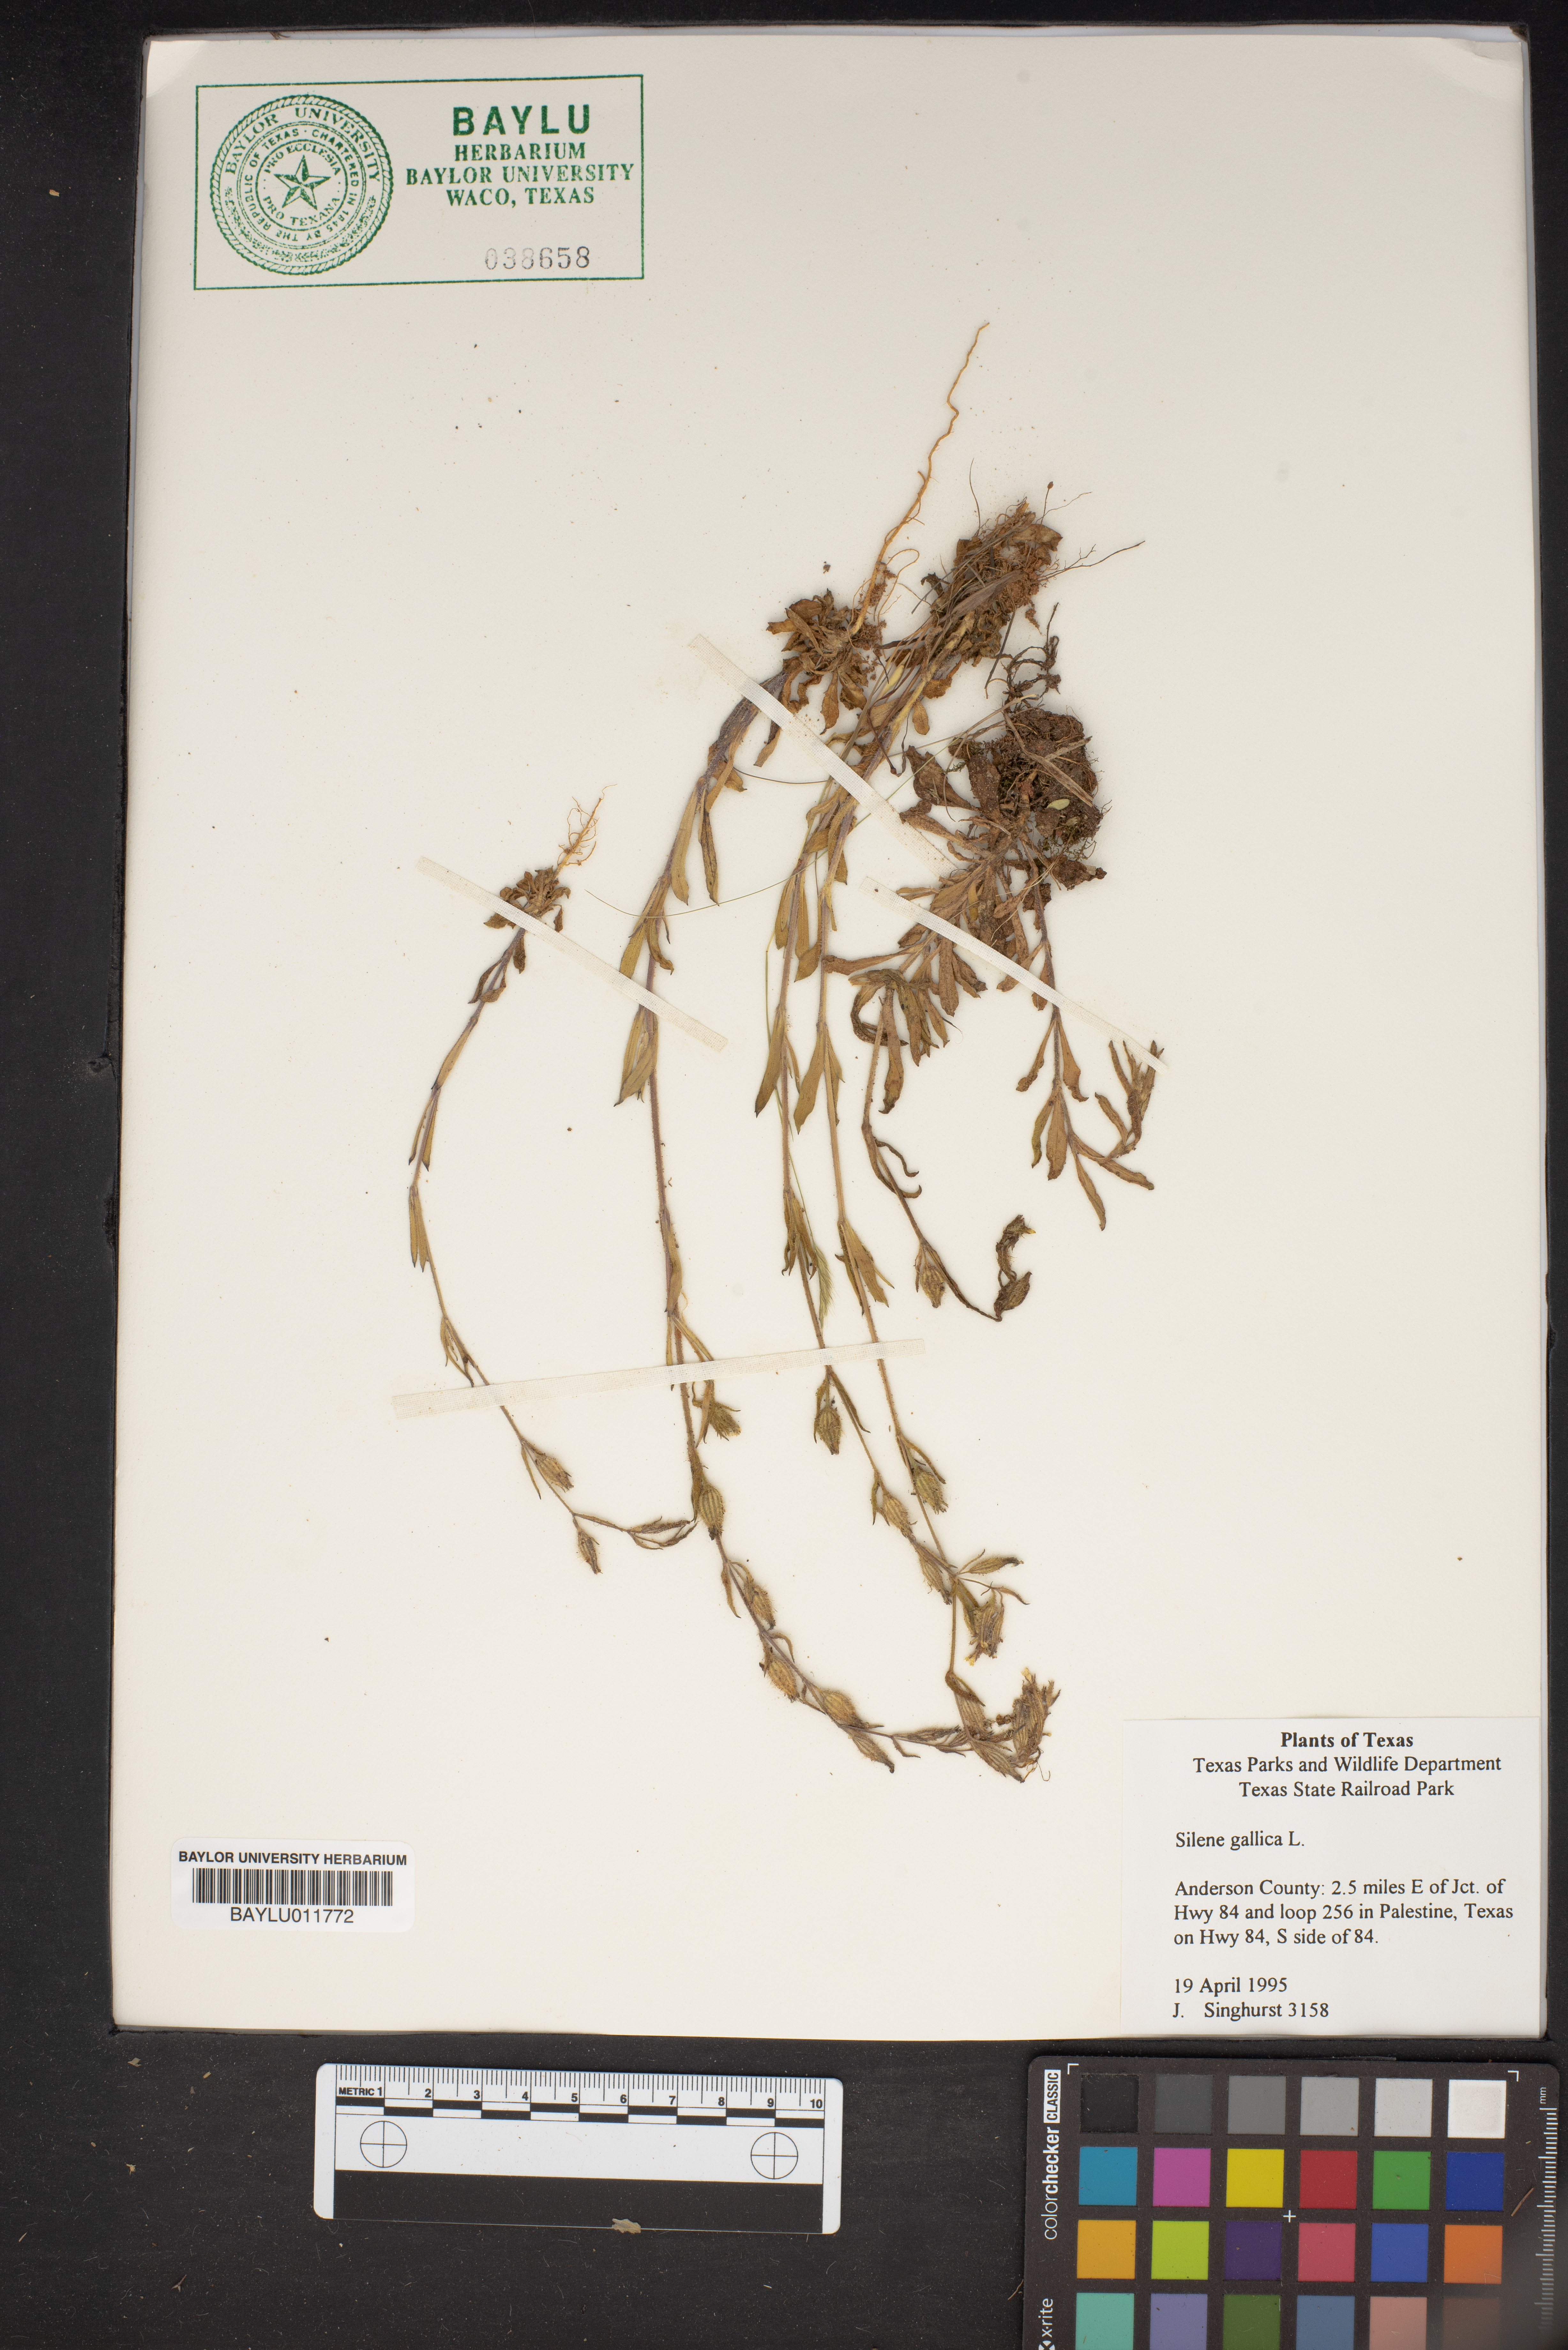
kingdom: Plantae
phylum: Tracheophyta
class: Magnoliopsida
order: Caryophyllales
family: Caryophyllaceae
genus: Silene
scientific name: Silene gallica
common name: Small-flowered catchfly
